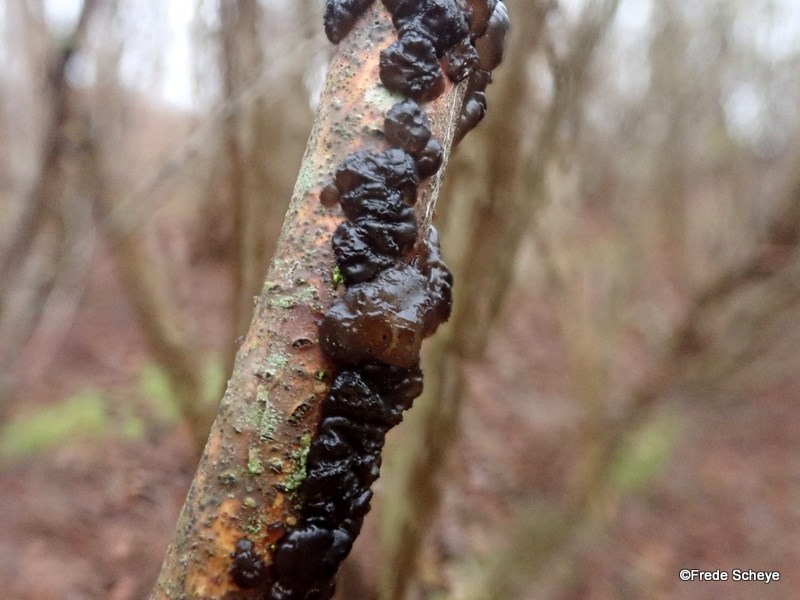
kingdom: Fungi
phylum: Basidiomycota
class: Agaricomycetes
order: Auriculariales
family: Auriculariaceae
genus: Exidia
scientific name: Exidia nigricans
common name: almindelig bævretop
